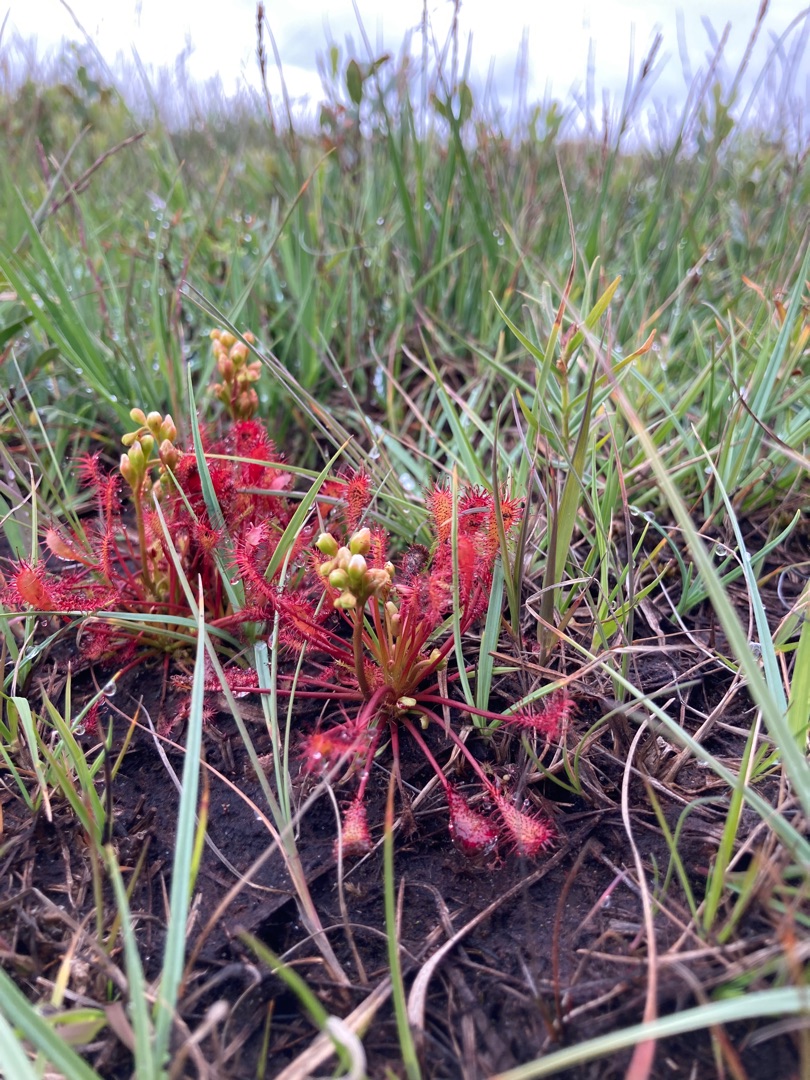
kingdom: Plantae
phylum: Tracheophyta
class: Magnoliopsida
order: Caryophyllales
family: Droseraceae
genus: Drosera
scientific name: Drosera intermedia
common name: Liden soldug
